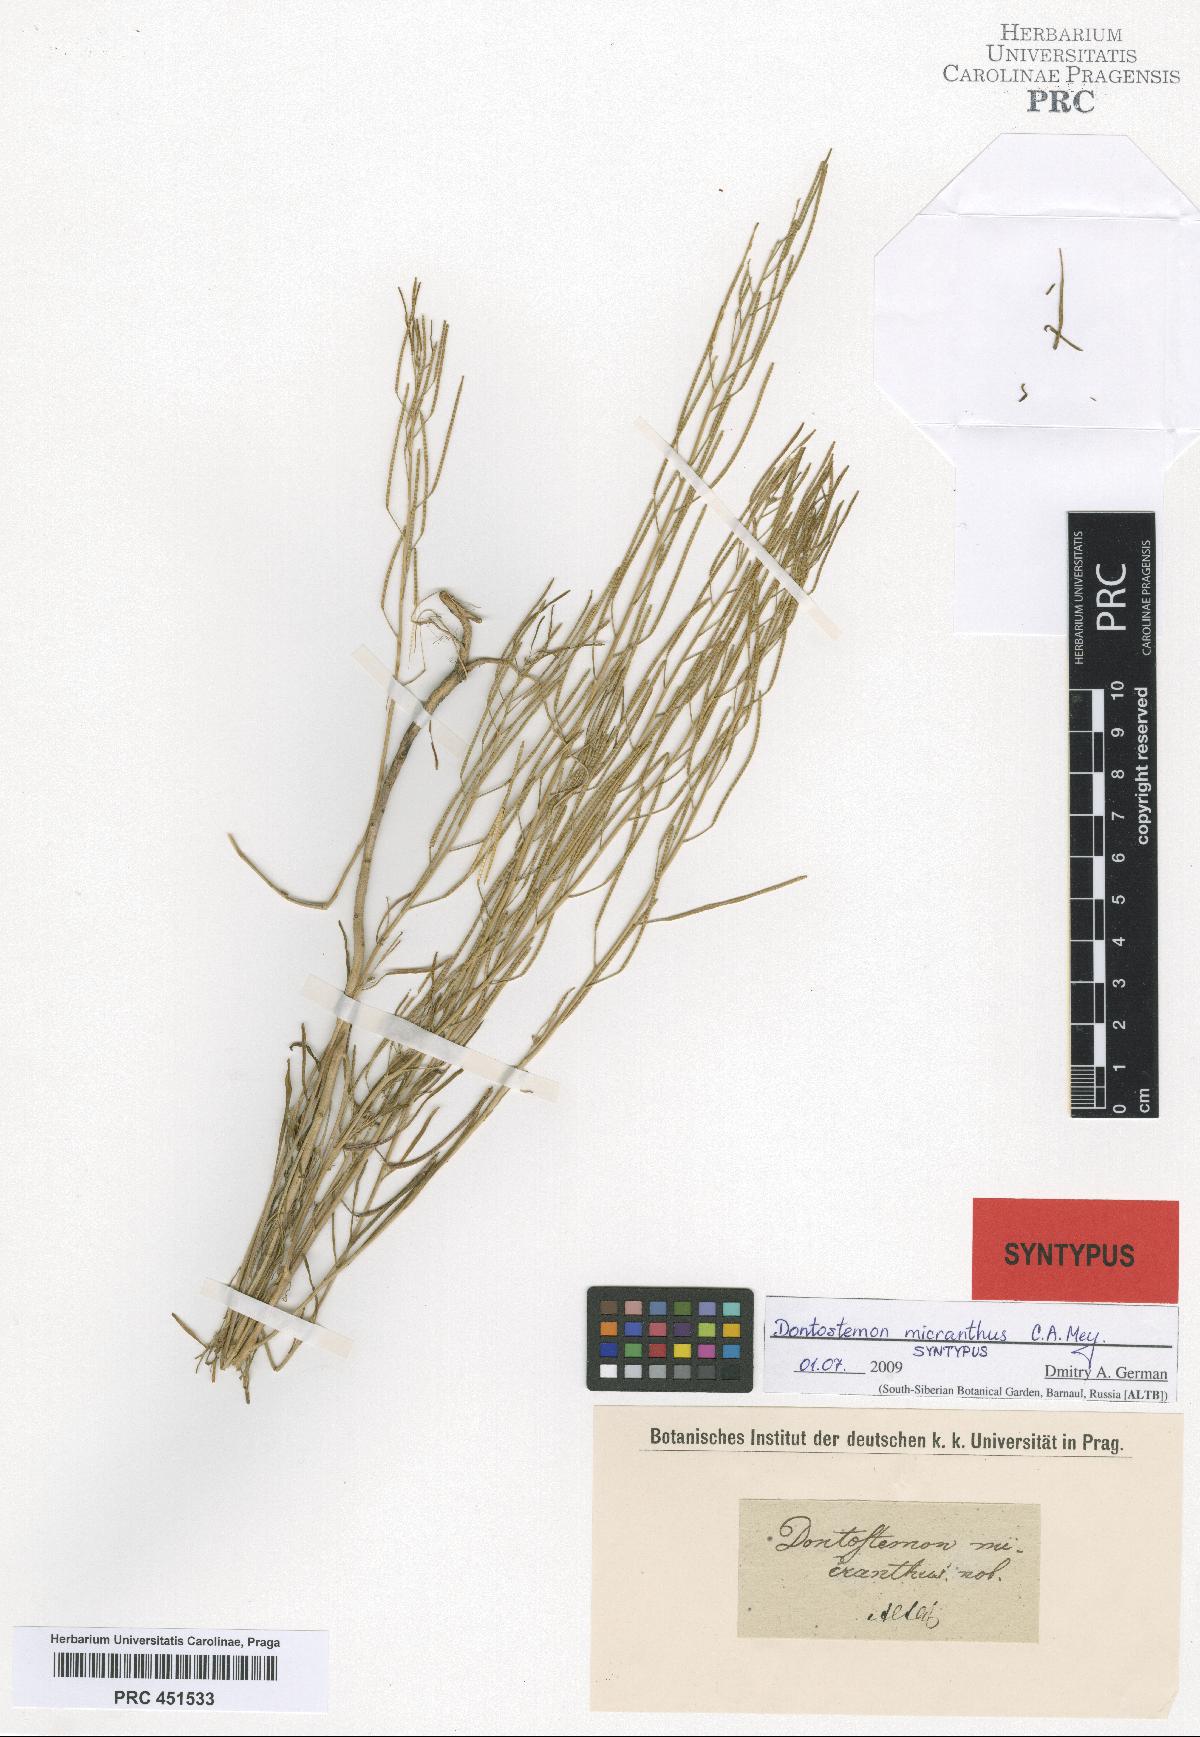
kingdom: Plantae
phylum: Tracheophyta
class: Magnoliopsida
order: Brassicales
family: Brassicaceae
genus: Dontostemon
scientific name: Dontostemon micranthus
